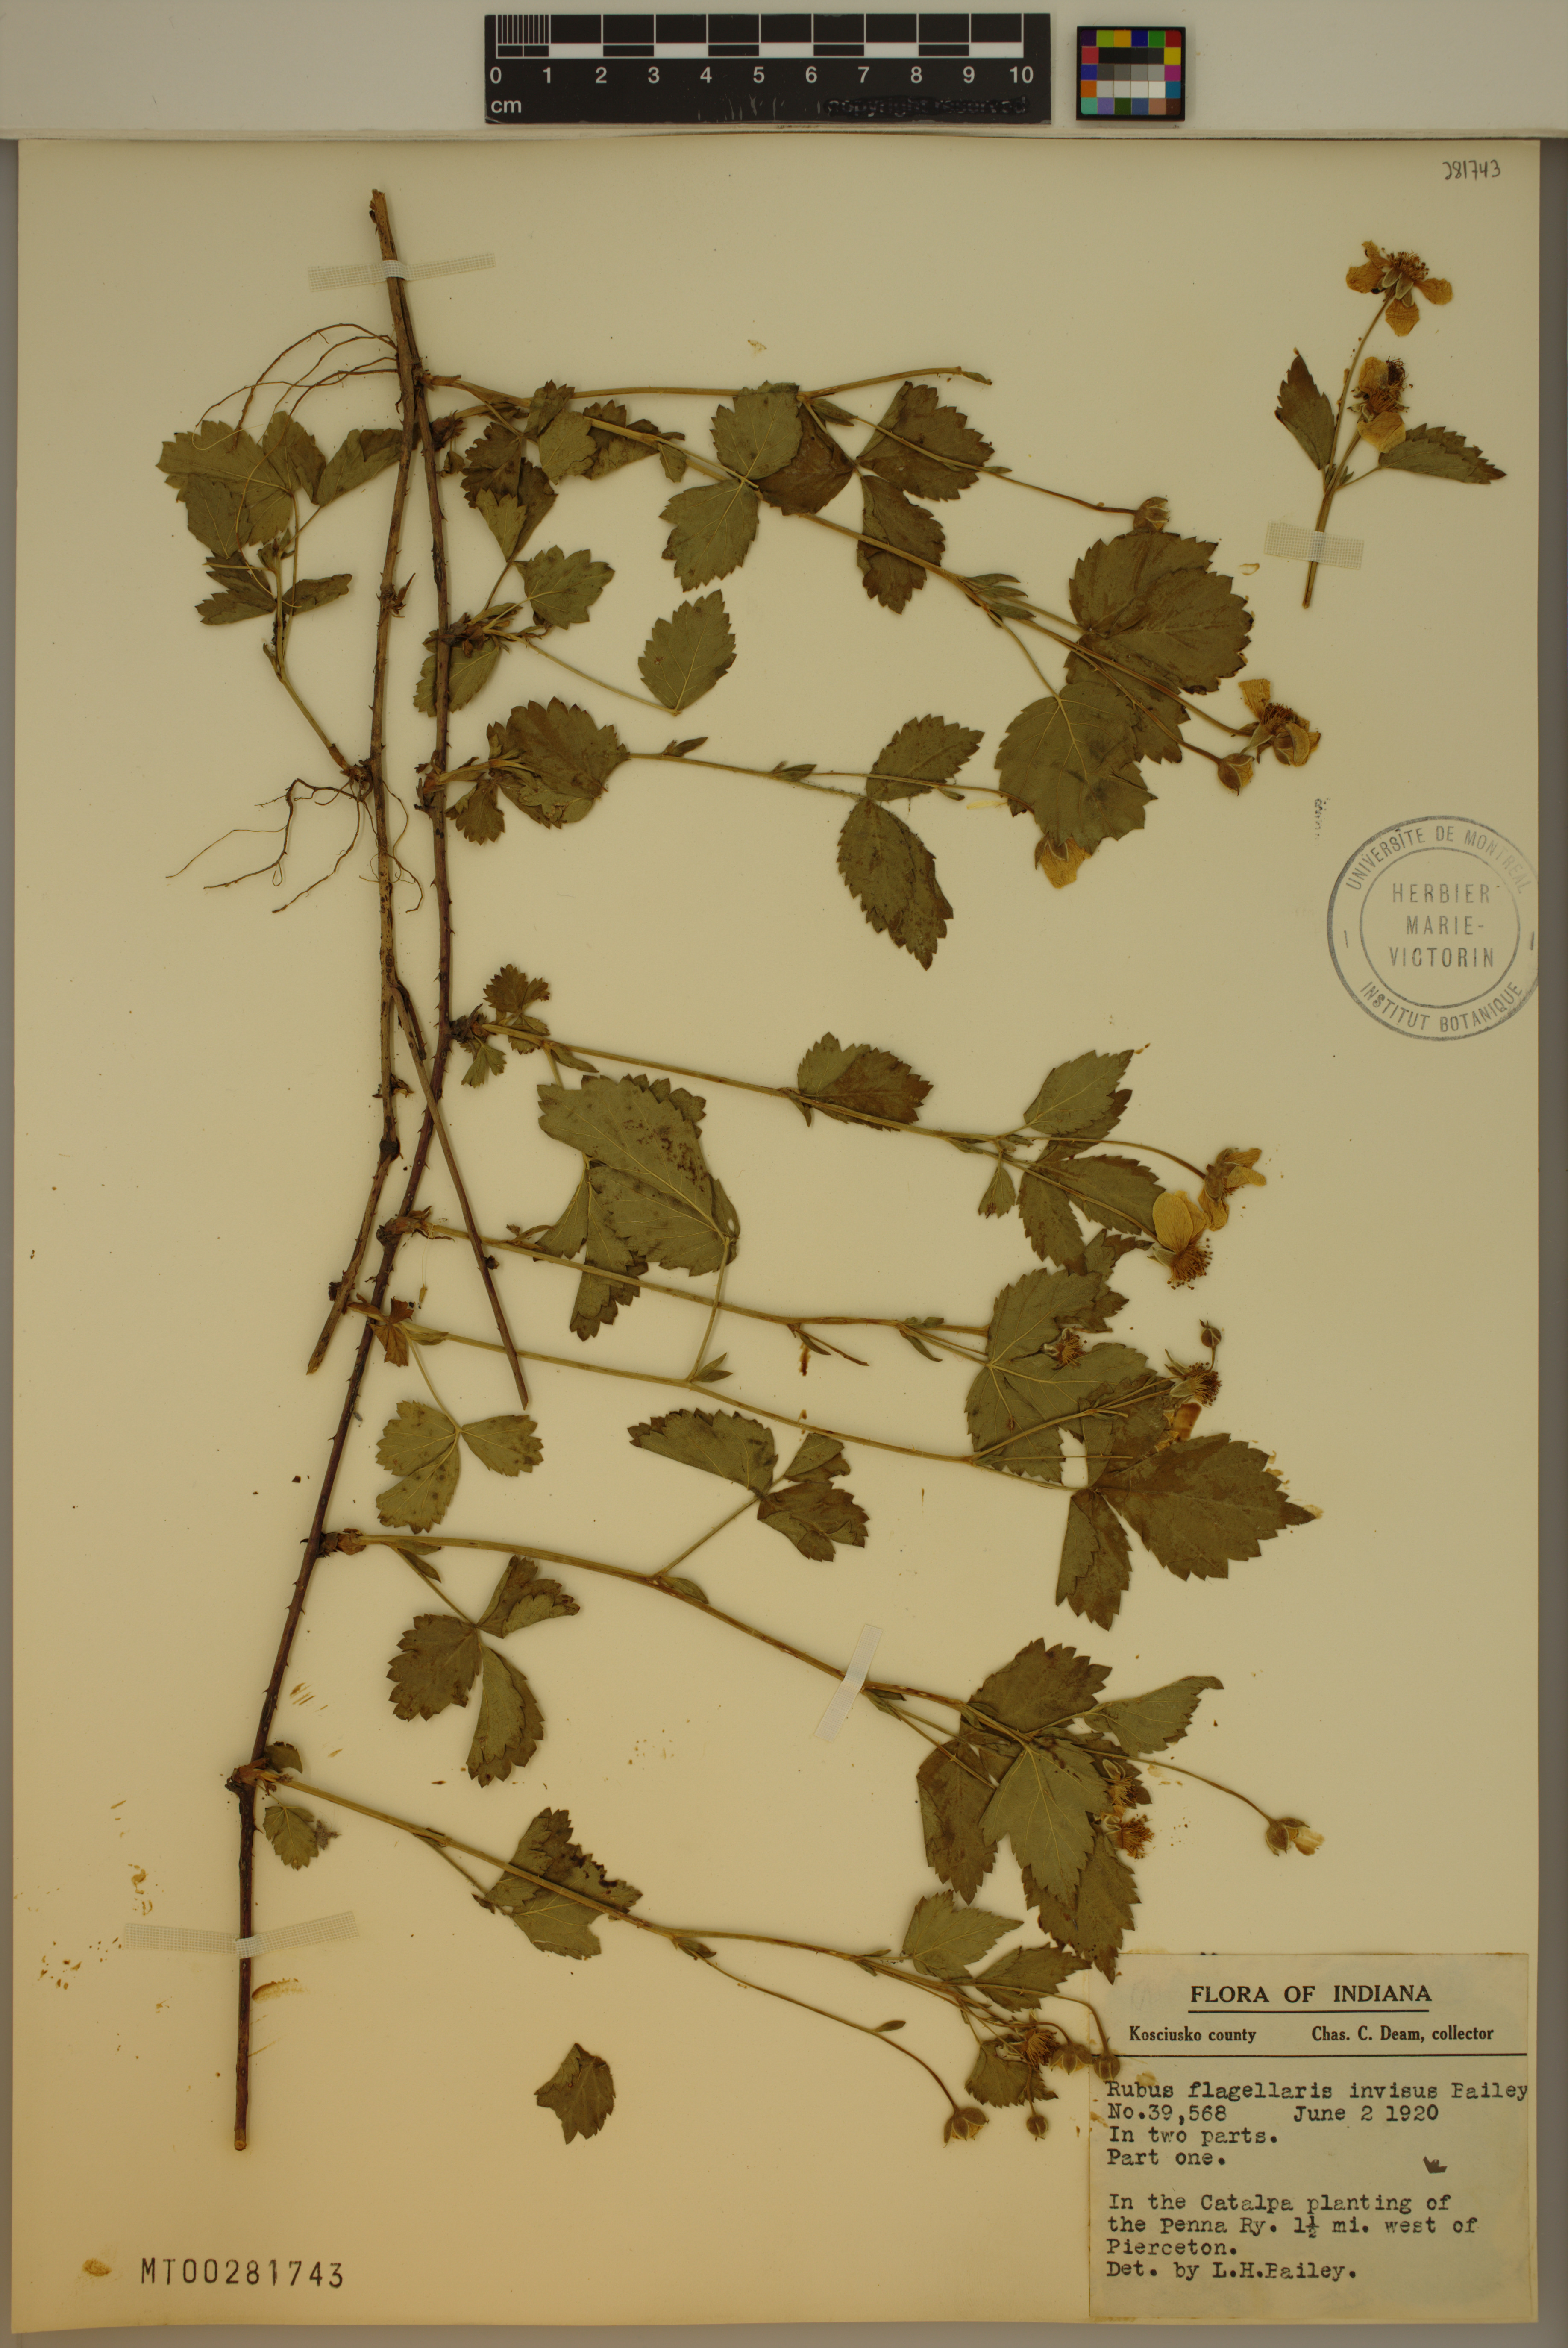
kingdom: Plantae
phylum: Tracheophyta
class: Magnoliopsida
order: Rosales
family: Rosaceae
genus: Rubus
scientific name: Rubus flagellaris
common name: American dewberry
